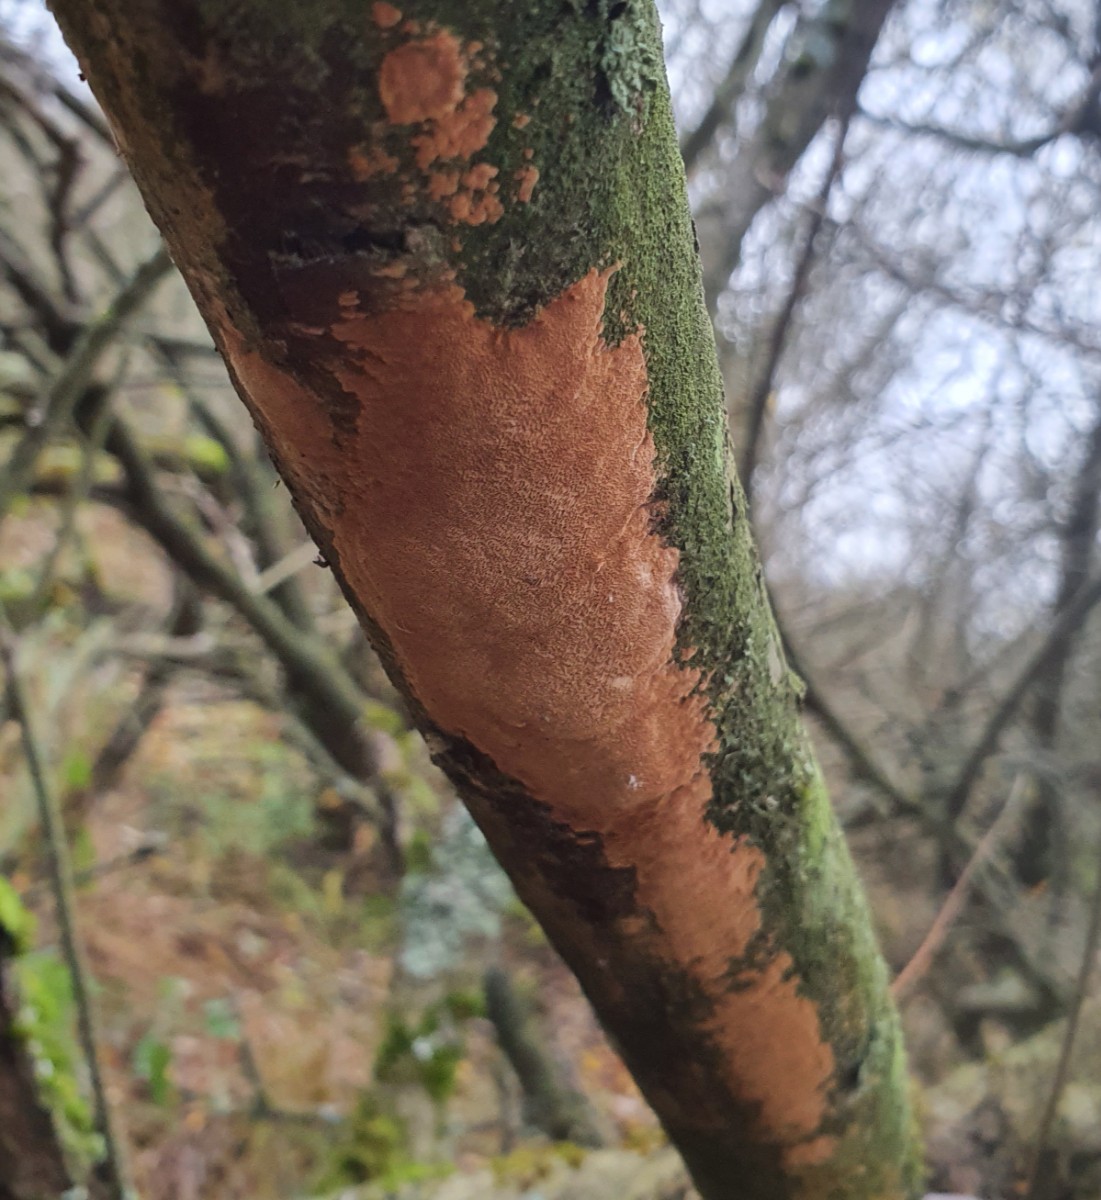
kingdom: Fungi
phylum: Basidiomycota
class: Agaricomycetes
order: Hymenochaetales
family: Hymenochaetaceae
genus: Fomitiporia
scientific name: Fomitiporia punctata
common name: pude-ildporesvamp
